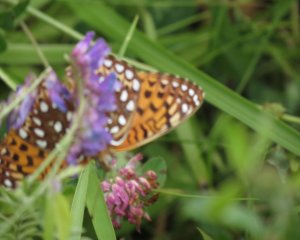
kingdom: Animalia
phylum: Arthropoda
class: Insecta
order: Lepidoptera
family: Nymphalidae
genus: Speyeria
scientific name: Speyeria atlantis
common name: Atlantis Fritillary
